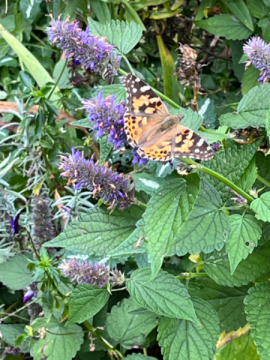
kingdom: Animalia
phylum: Arthropoda
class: Insecta
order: Lepidoptera
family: Nymphalidae
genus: Vanessa
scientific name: Vanessa cardui
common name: Painted Lady
